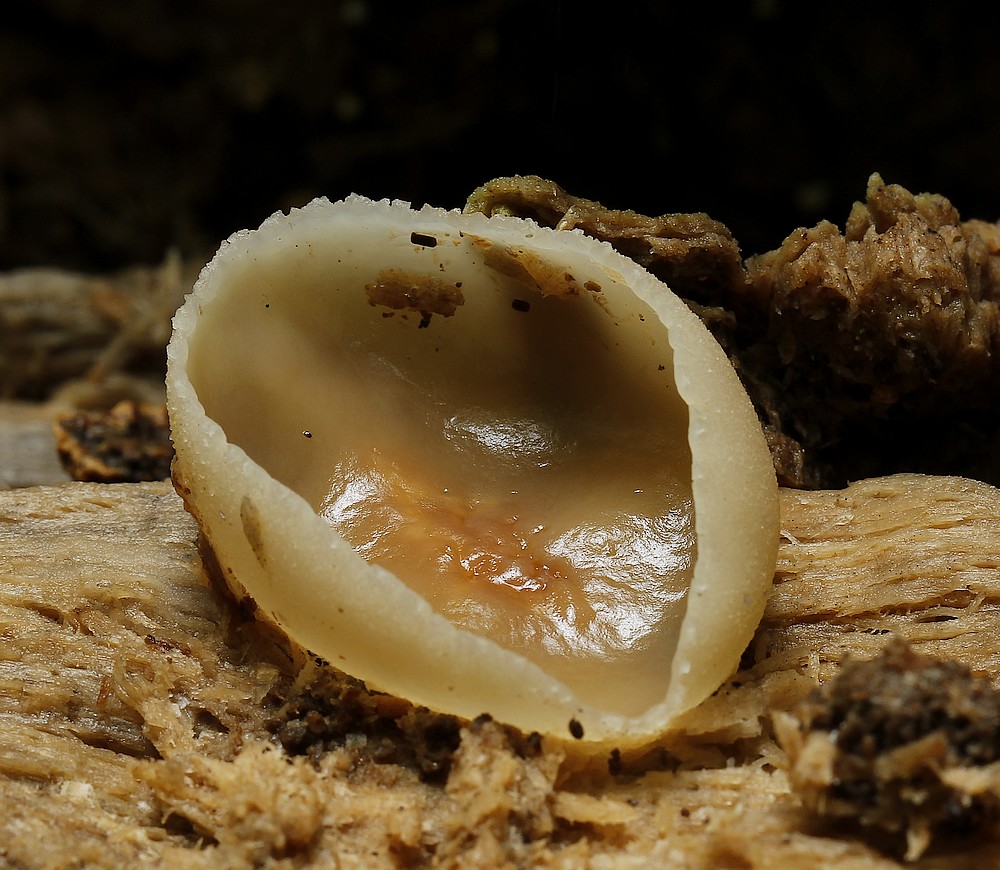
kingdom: Fungi
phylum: Ascomycota
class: Pezizomycetes
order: Pezizales
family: Pezizaceae
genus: Peziza
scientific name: Peziza varia
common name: Ved-bægersvamp
